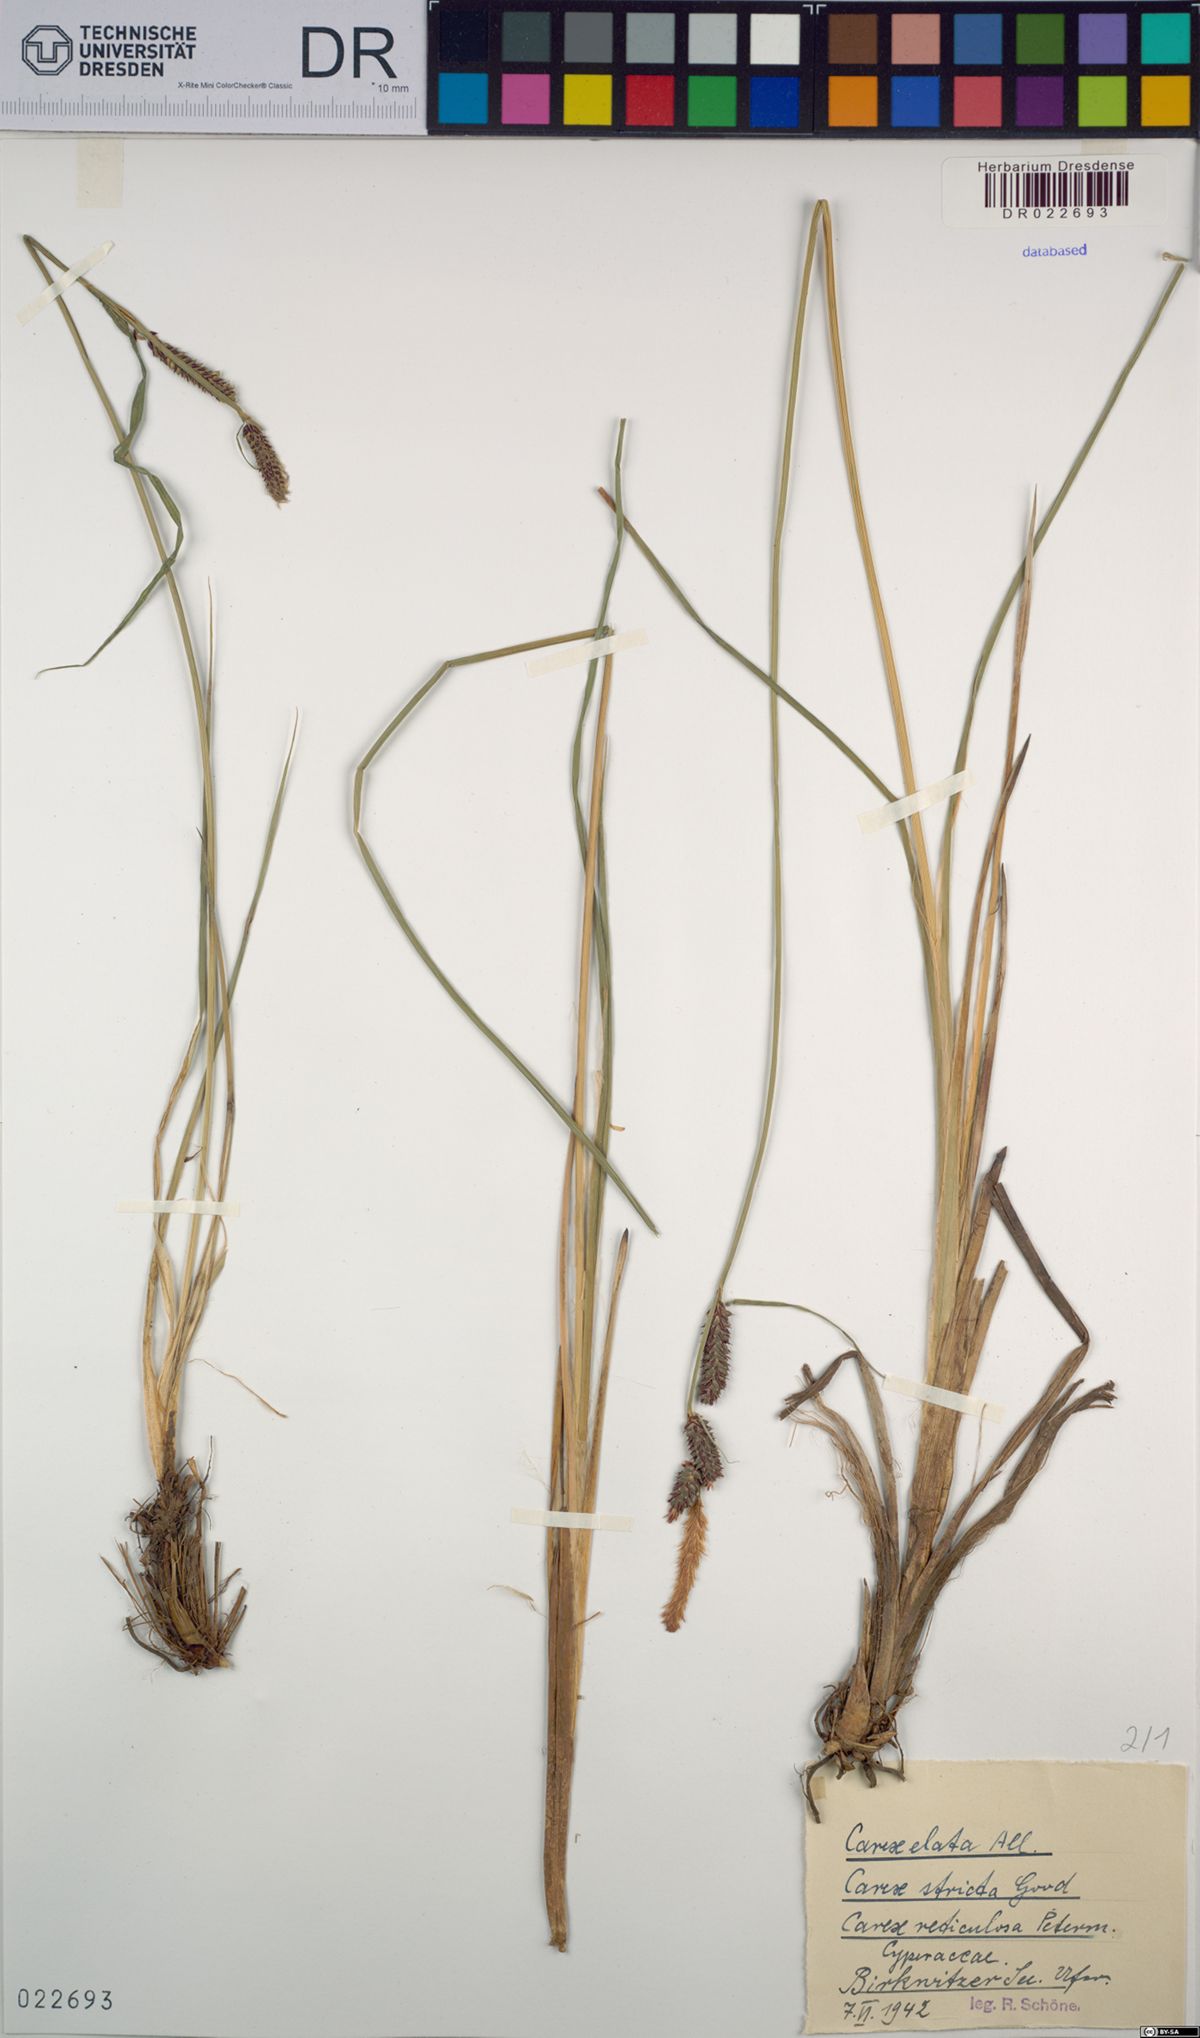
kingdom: Plantae
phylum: Tracheophyta
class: Liliopsida
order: Poales
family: Cyperaceae
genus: Carex
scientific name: Carex elata
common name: Tufted sedge
